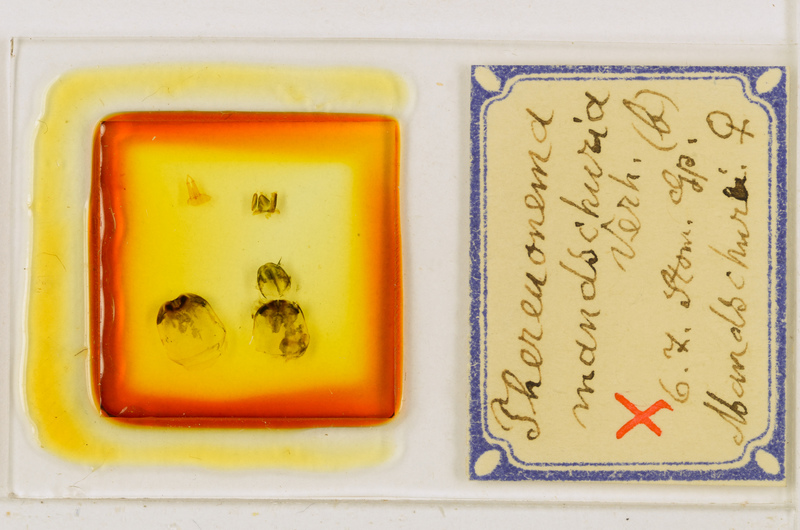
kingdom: Animalia
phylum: Arthropoda
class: Chilopoda
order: Scutigeromorpha
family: Scutigeridae
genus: Thereuonema
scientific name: Thereuonema tuberculata
